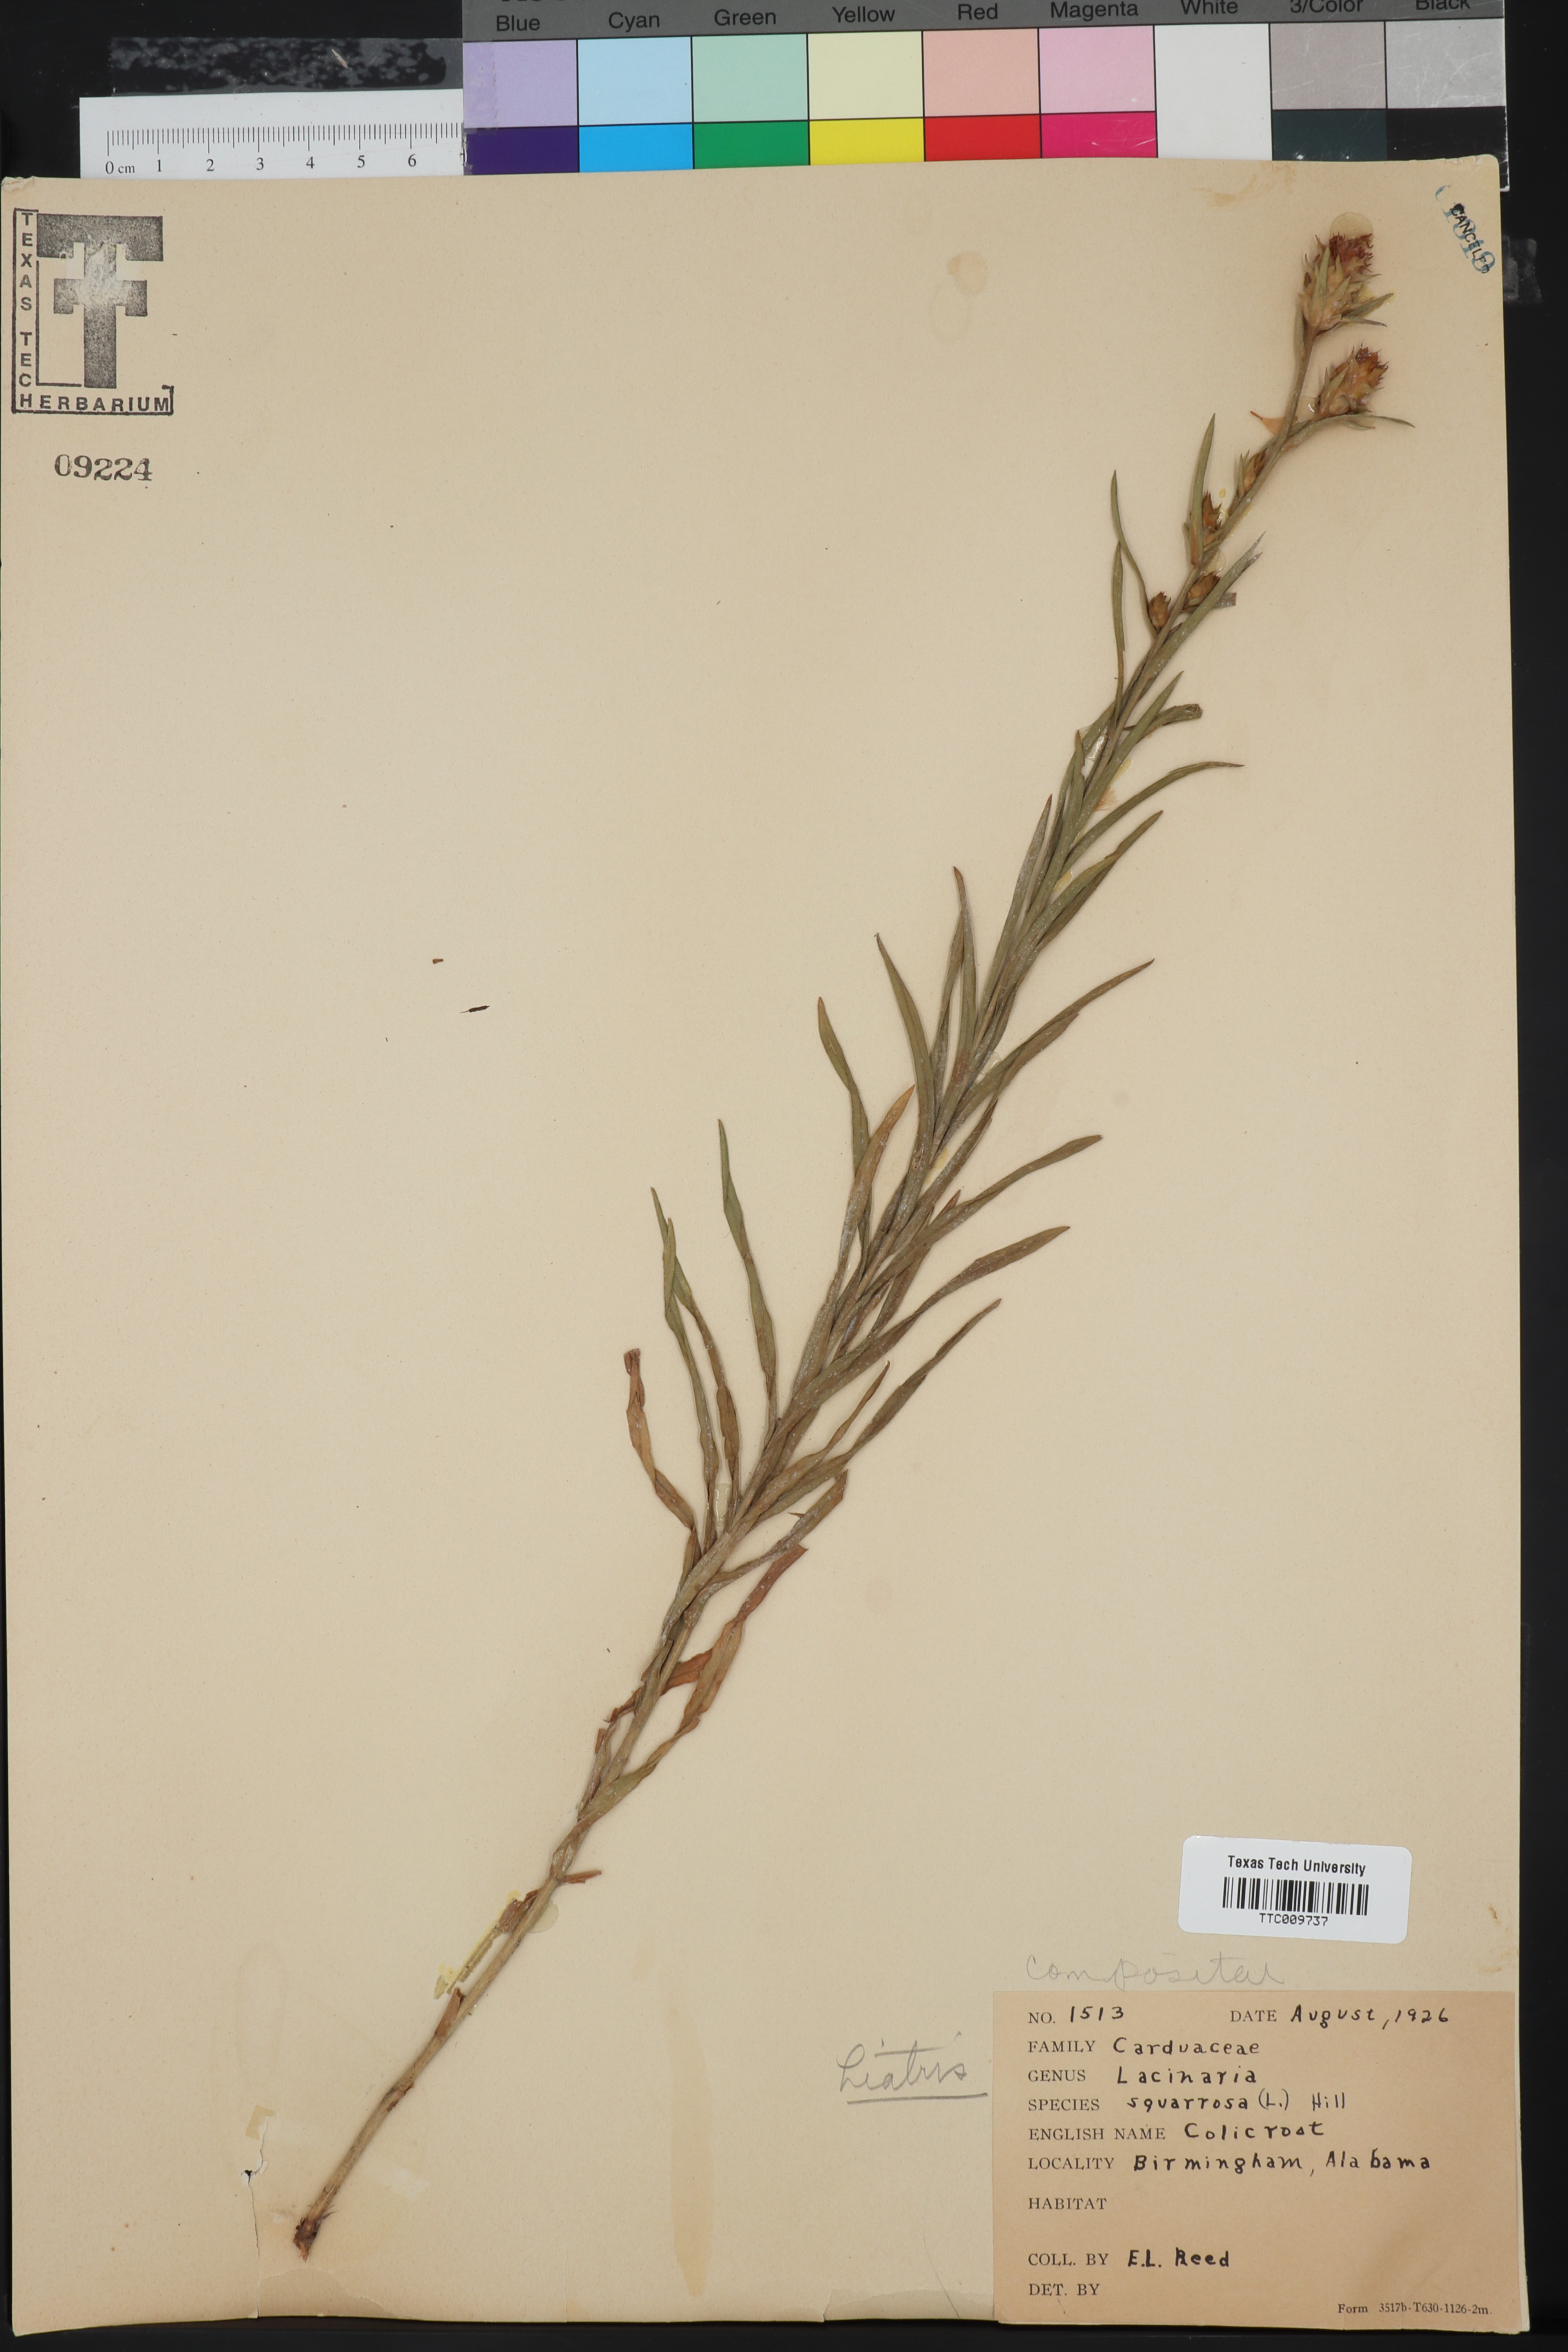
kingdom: Plantae
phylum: Tracheophyta
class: Magnoliopsida
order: Asterales
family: Asteraceae
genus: Liatris
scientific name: Liatris squarrosa
